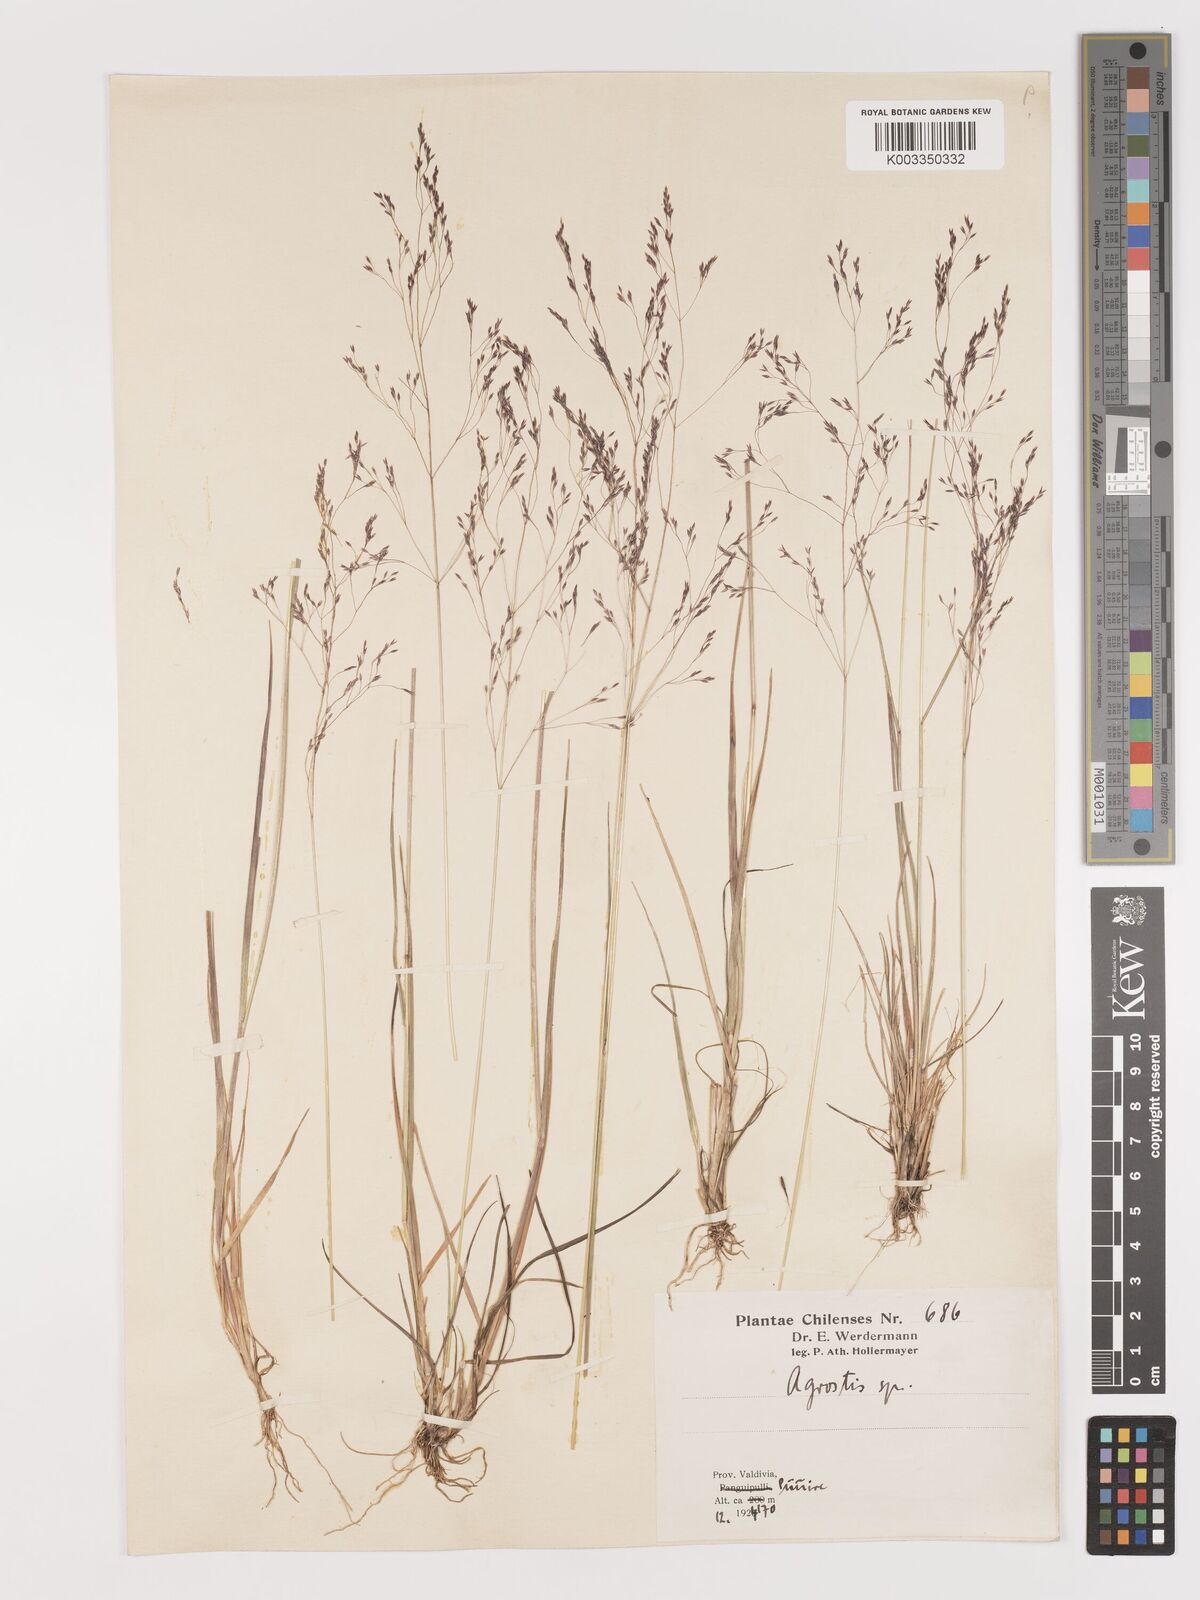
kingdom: Plantae
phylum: Tracheophyta
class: Liliopsida
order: Poales
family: Poaceae
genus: Agrostis
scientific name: Agrostis
